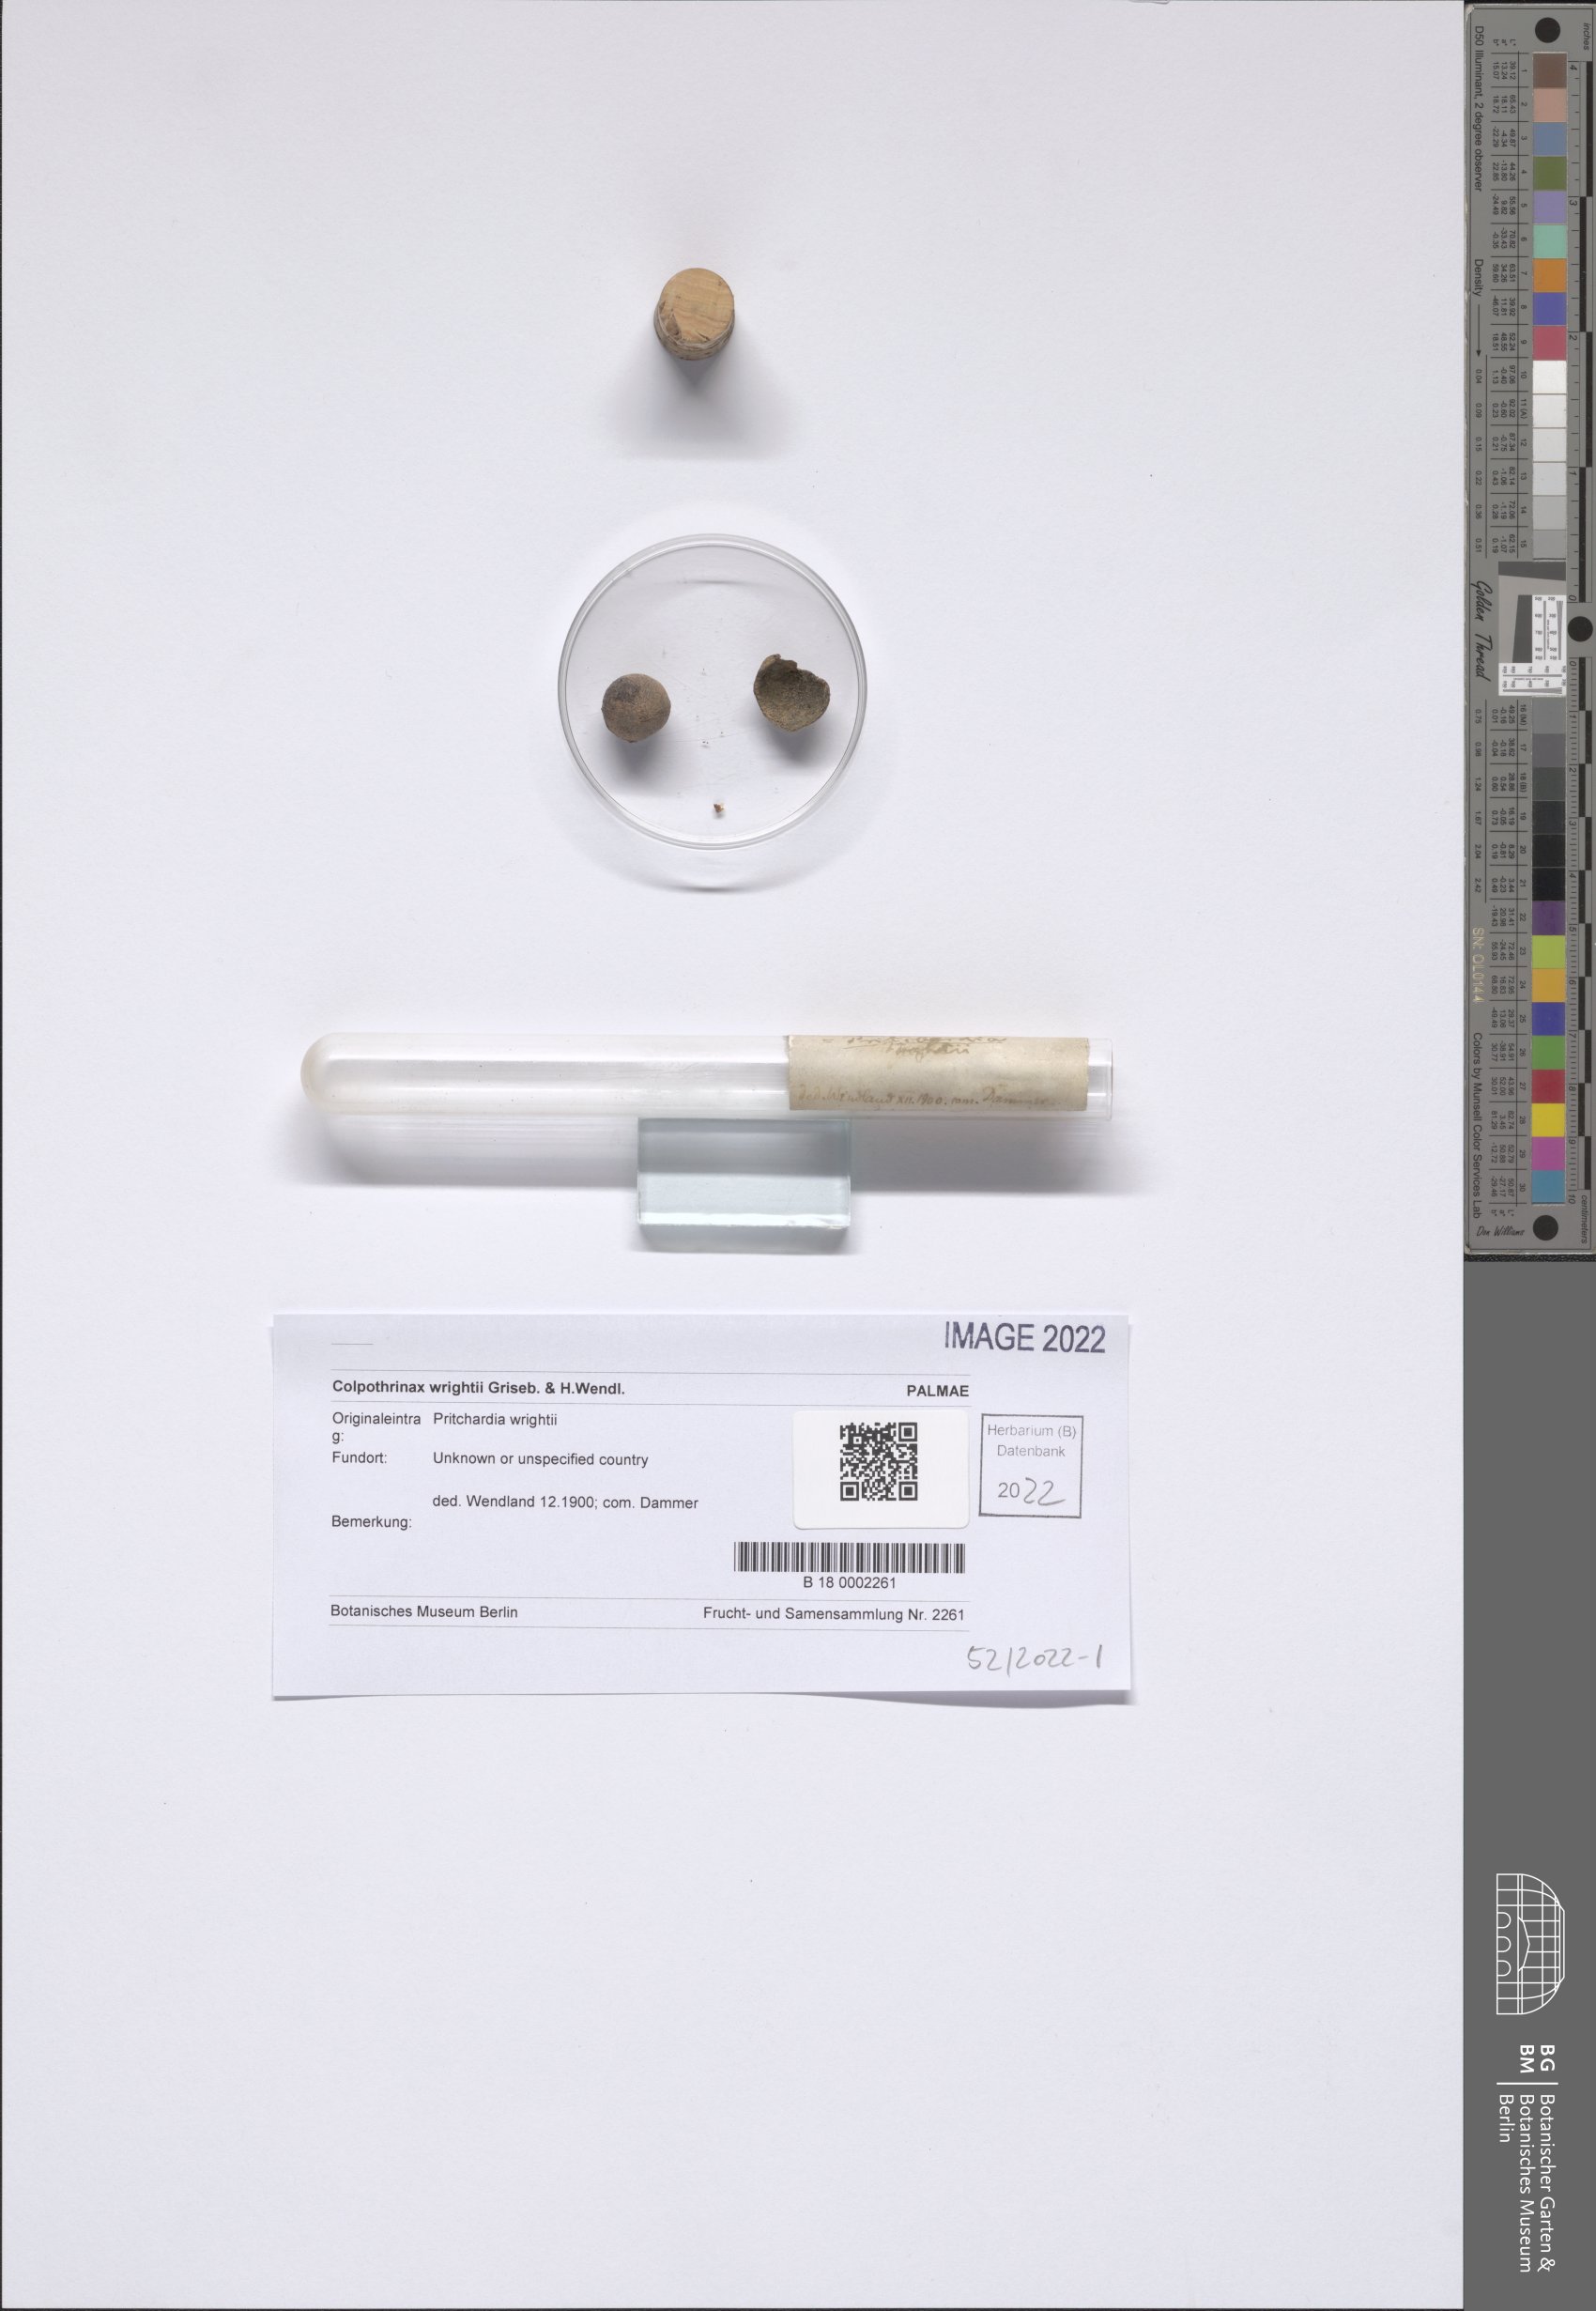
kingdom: Plantae
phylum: Tracheophyta
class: Liliopsida
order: Arecales
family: Arecaceae
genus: Colpothrinax
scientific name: Colpothrinax wrightii
